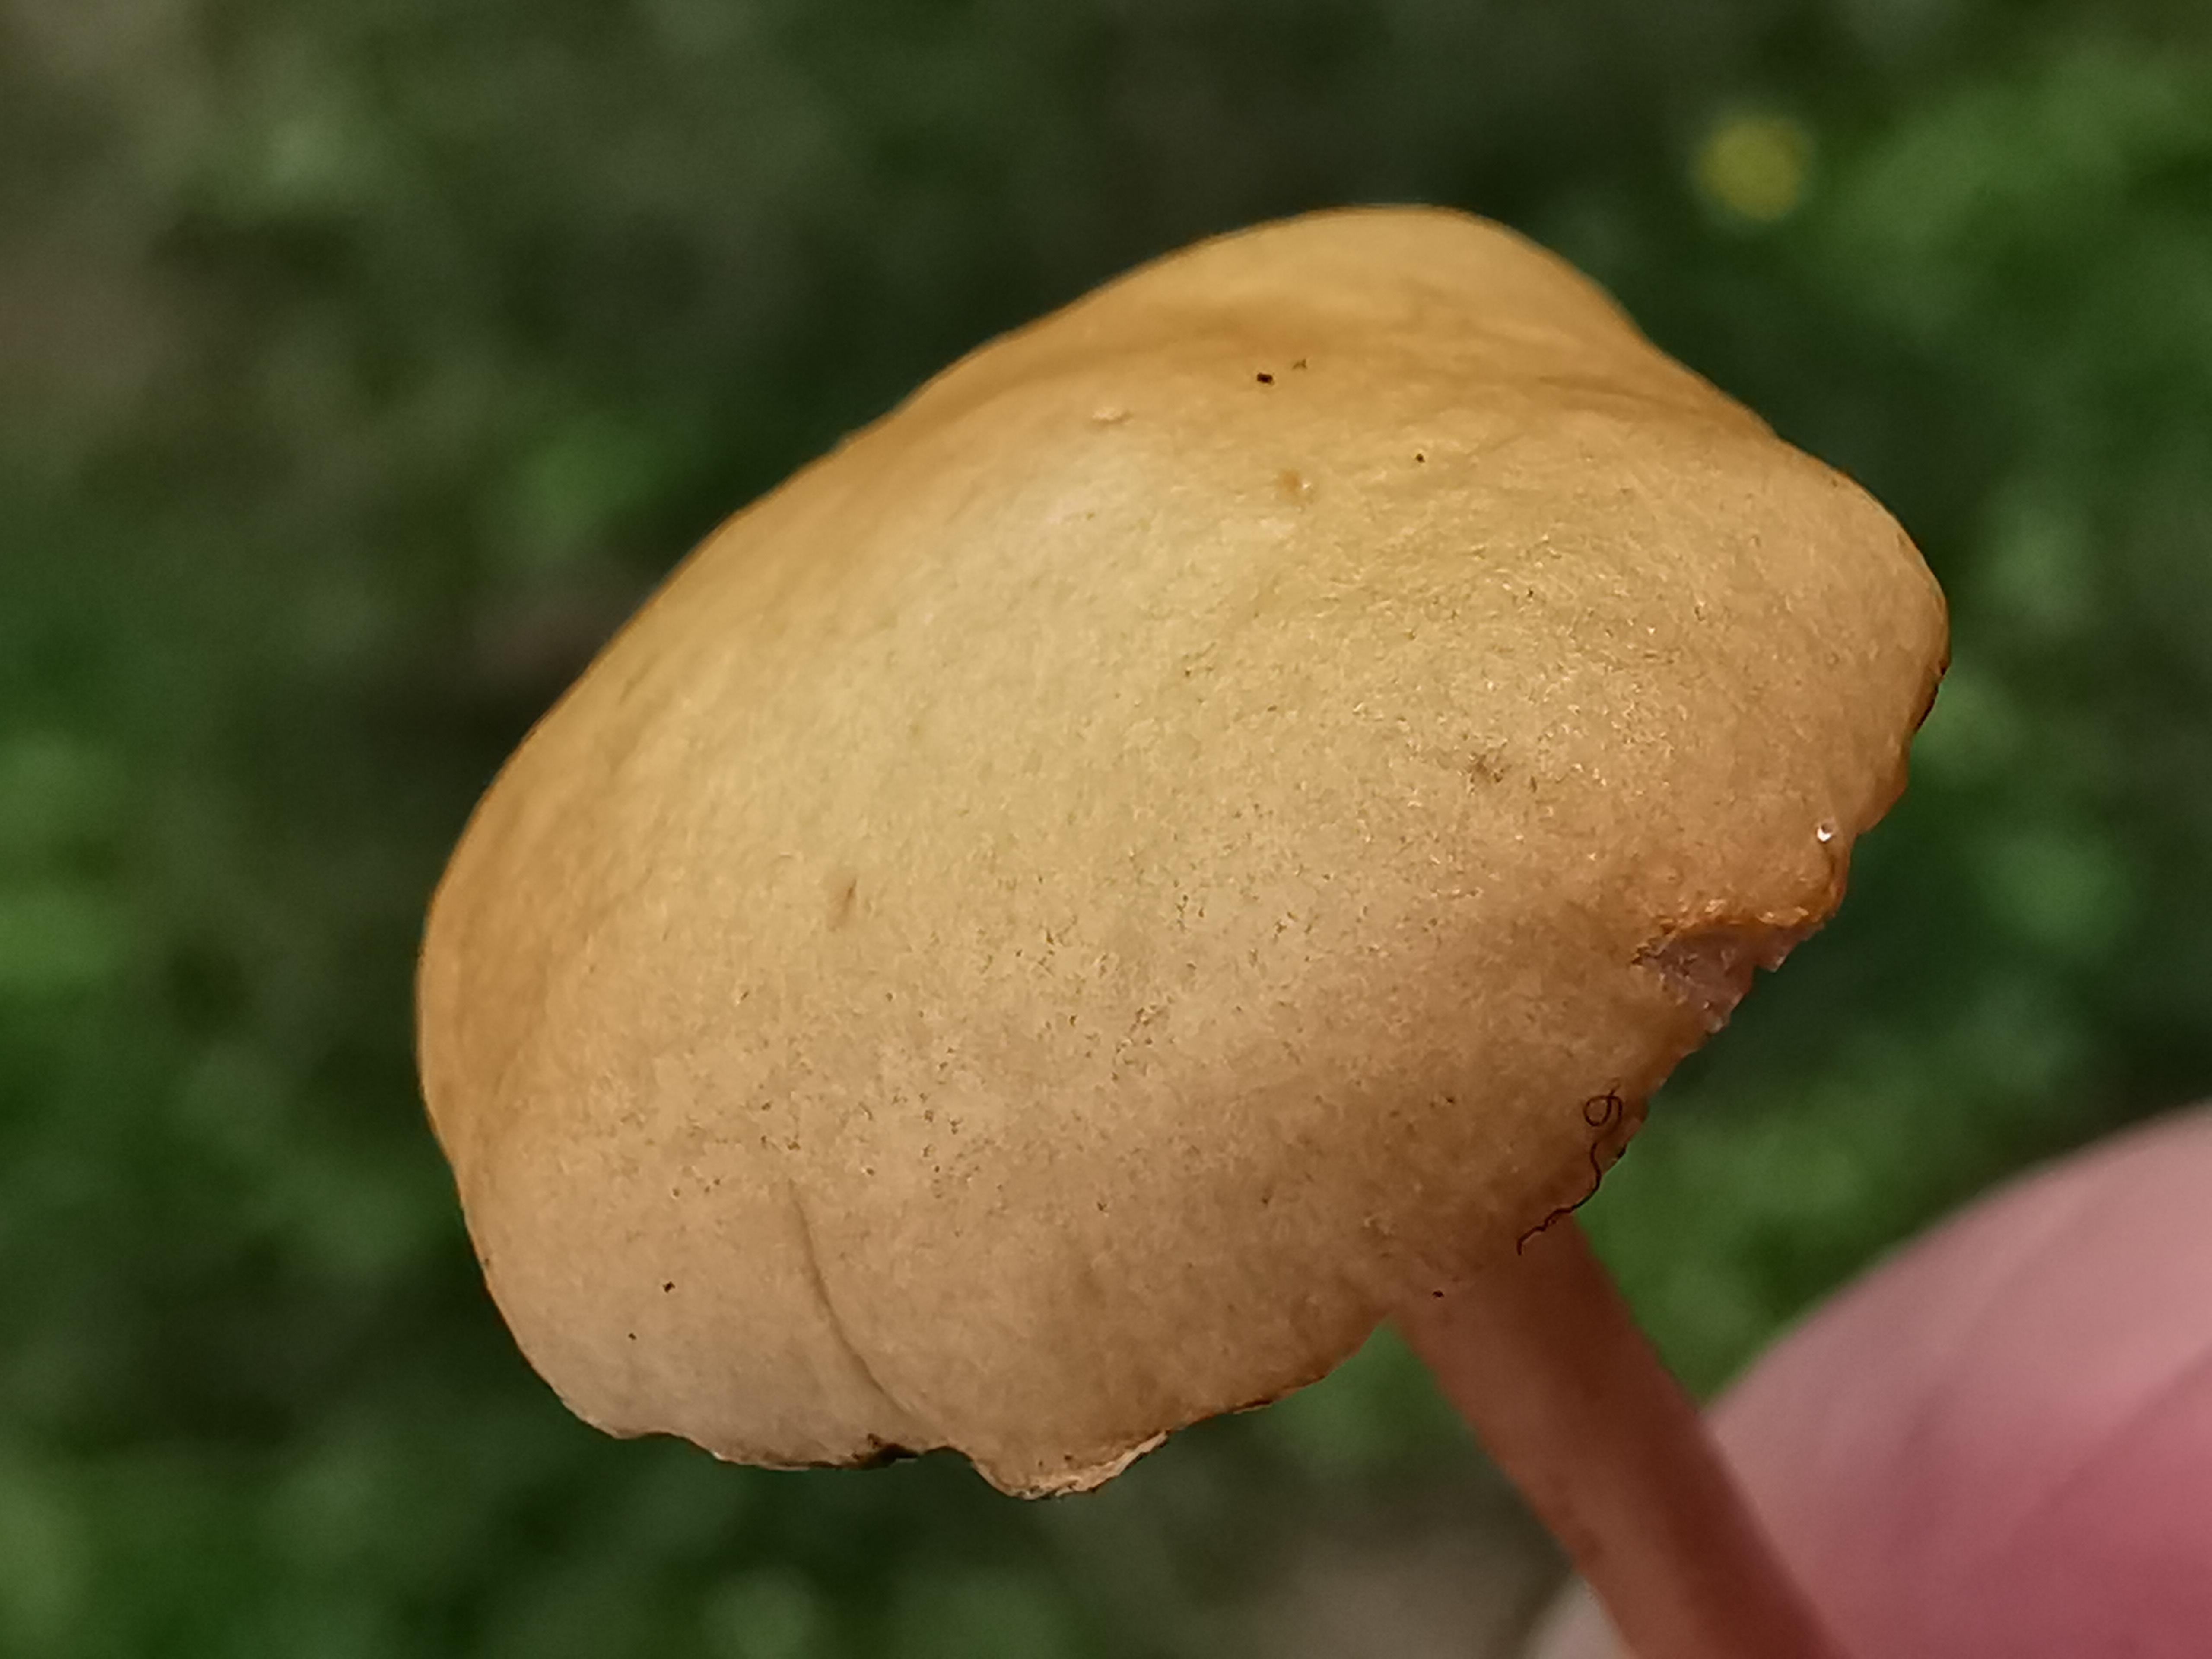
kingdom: Fungi
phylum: Basidiomycota
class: Agaricomycetes
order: Agaricales
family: Strophariaceae
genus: Agrocybe
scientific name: Agrocybe pediades
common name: almindelig agerhat
